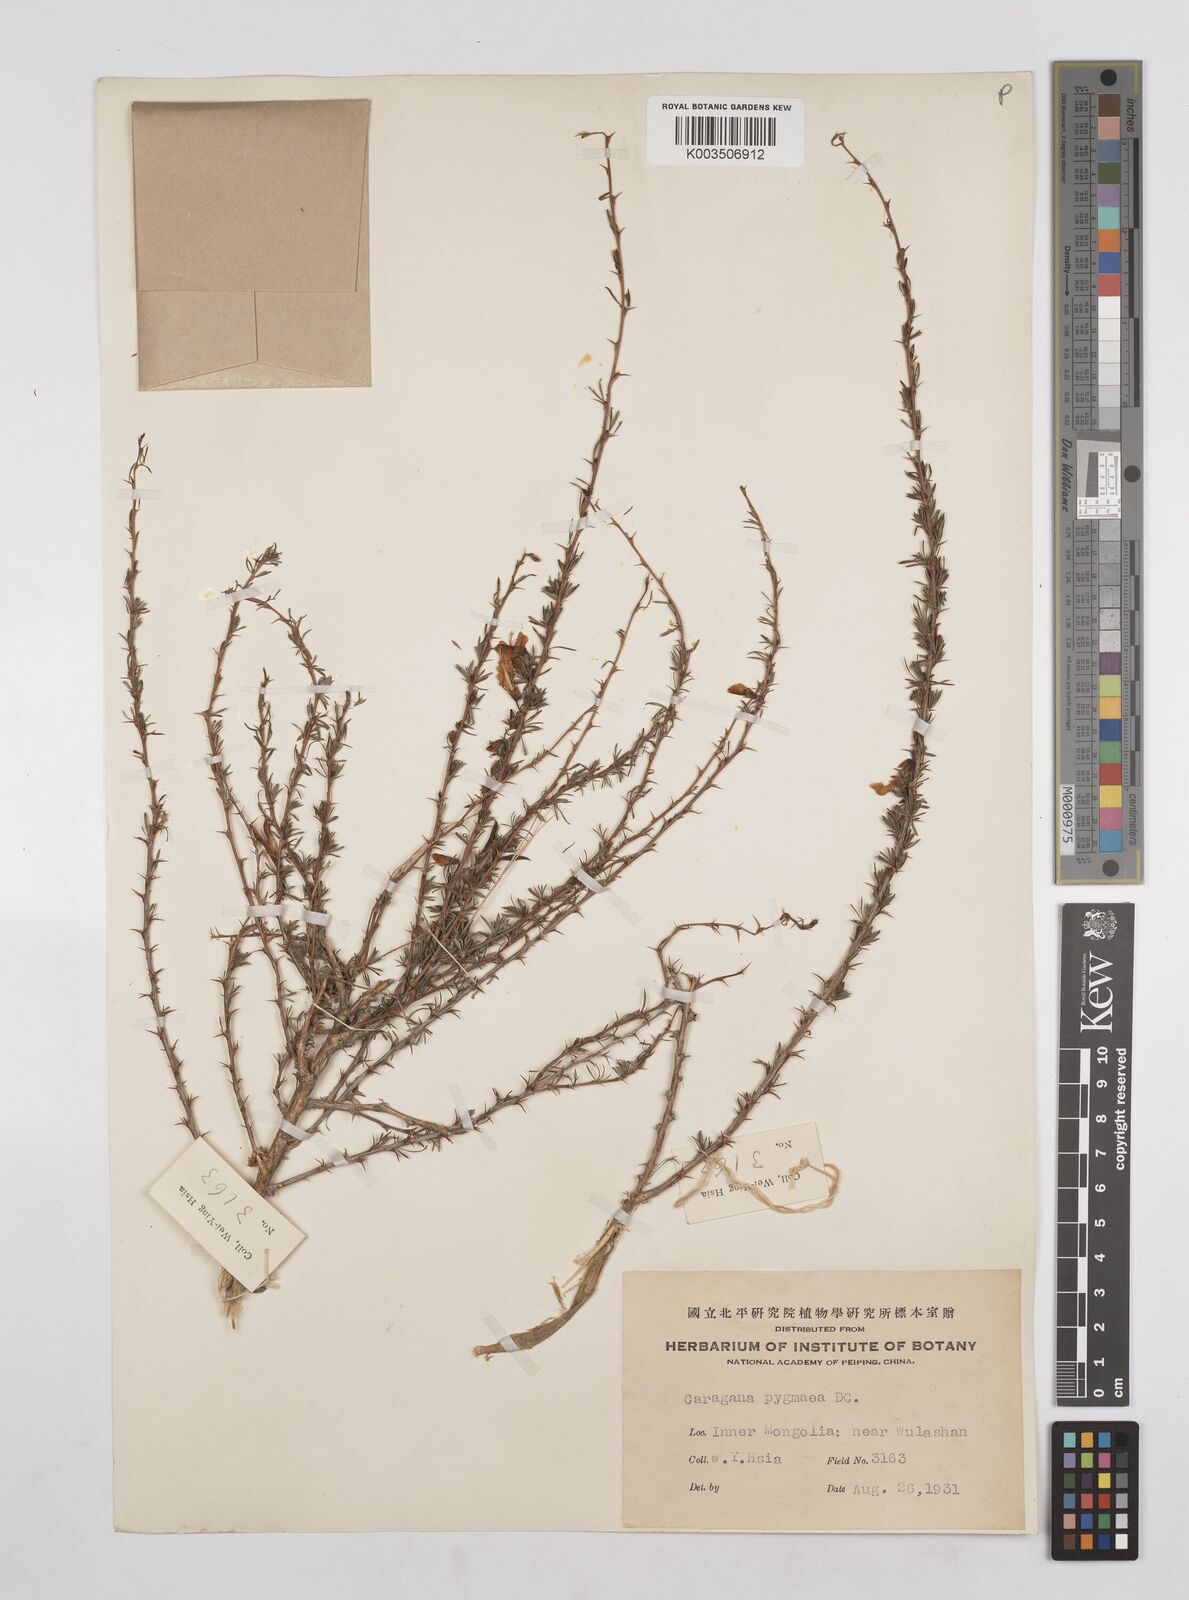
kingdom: Plantae
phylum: Tracheophyta
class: Magnoliopsida
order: Fabales
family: Fabaceae
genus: Caragana
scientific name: Caragana pygmaea
